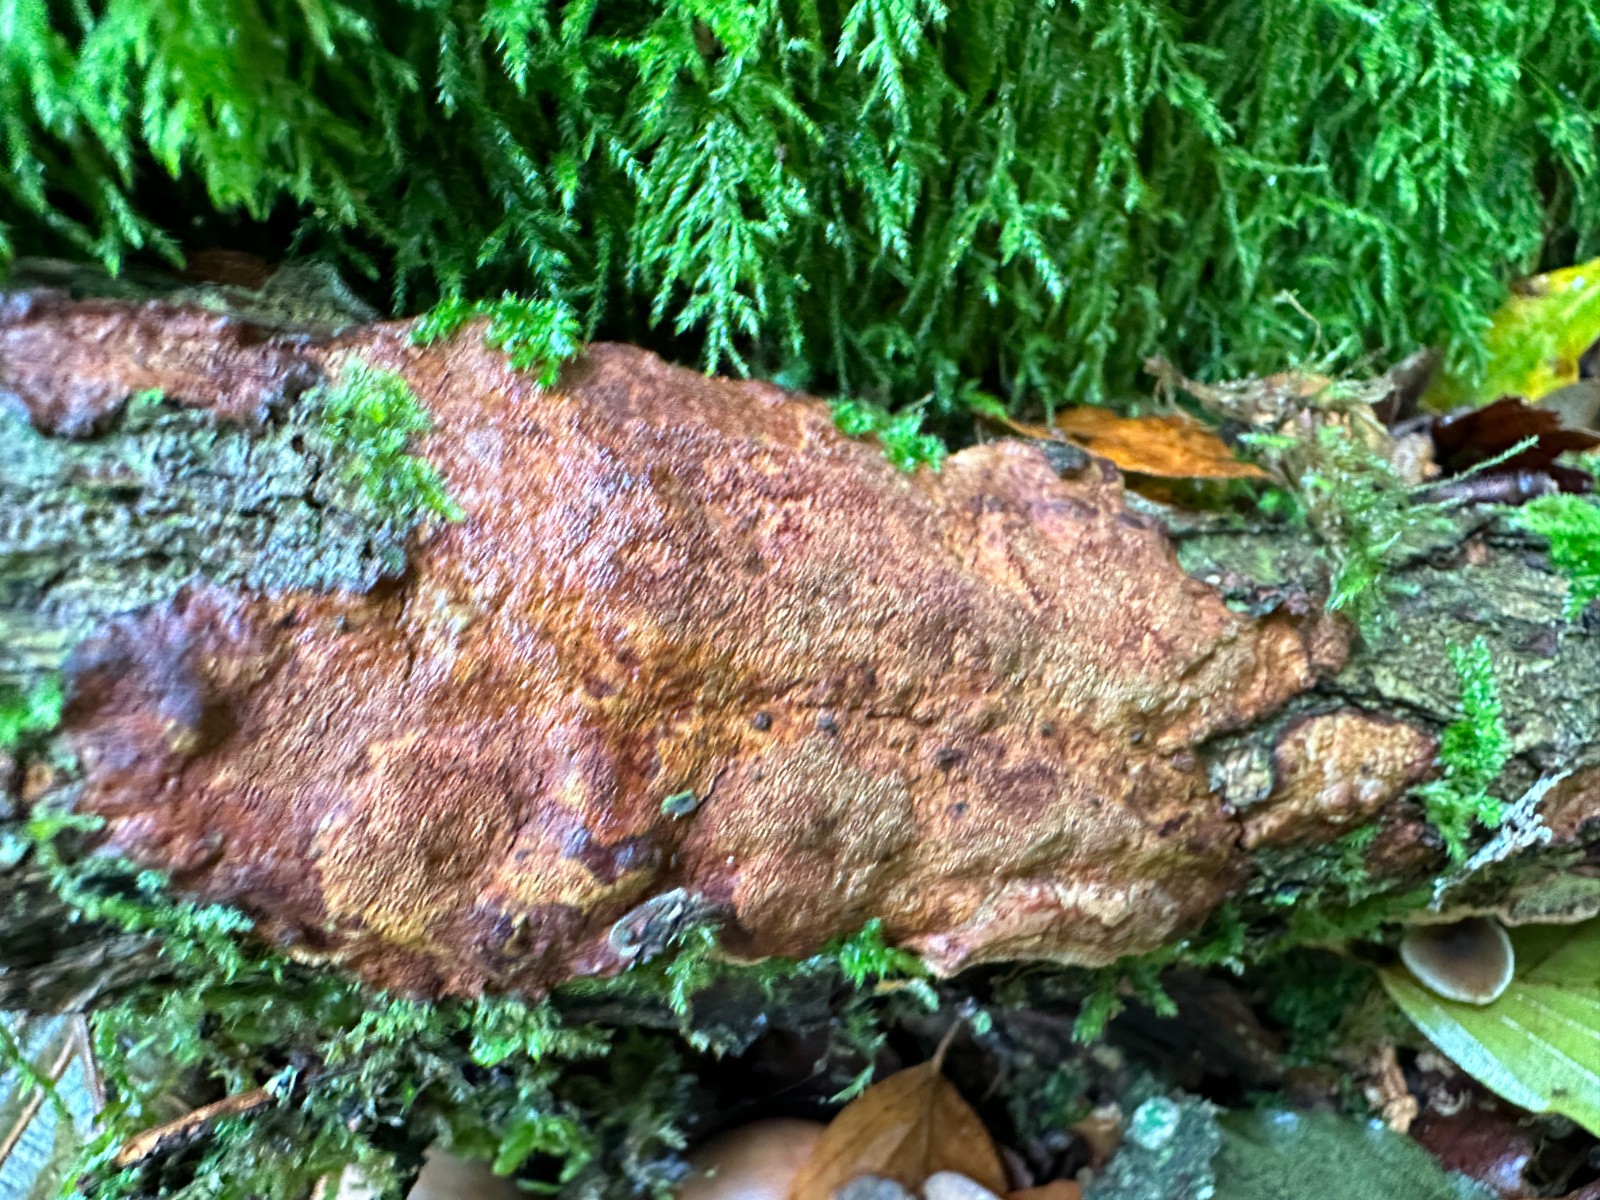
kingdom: Fungi
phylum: Basidiomycota
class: Agaricomycetes
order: Hymenochaetales
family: Hymenochaetaceae
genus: Fuscoporia
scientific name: Fuscoporia ferrea
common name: skorpe-ildporesvamp
